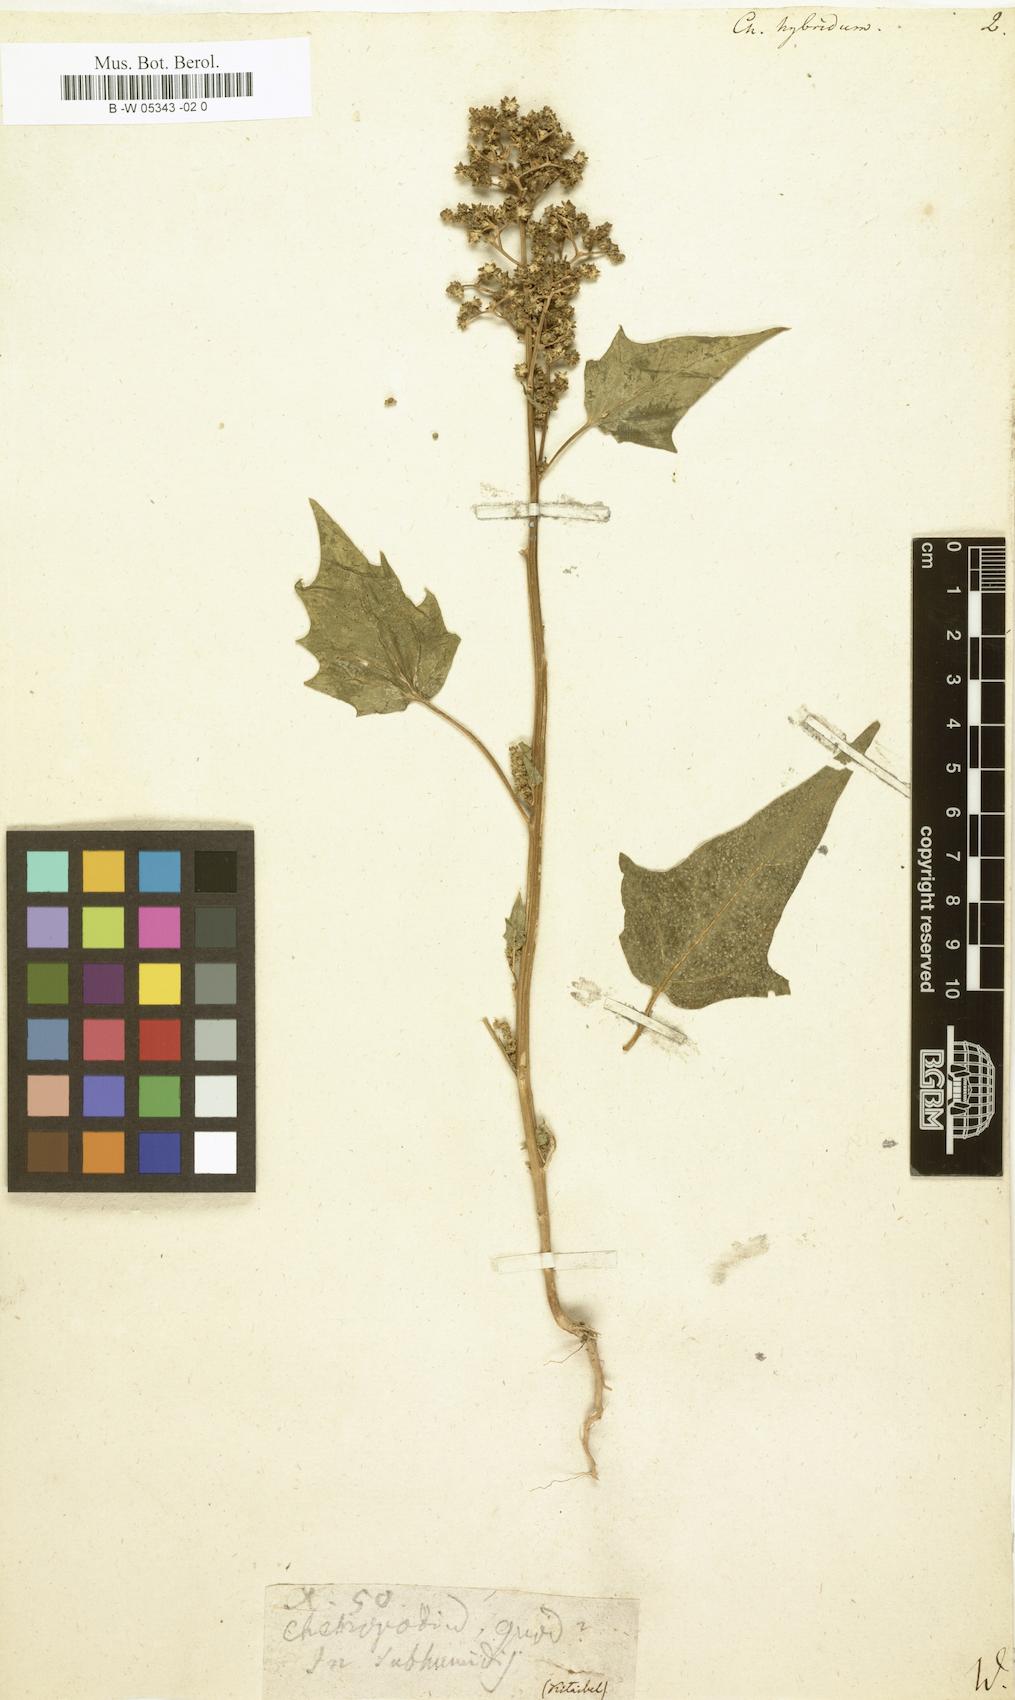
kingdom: Plantae
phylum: Tracheophyta
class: Magnoliopsida
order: Caryophyllales
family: Amaranthaceae
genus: Chenopodiastrum
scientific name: Chenopodiastrum hybridum
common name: Mapleleaf goosefoot
